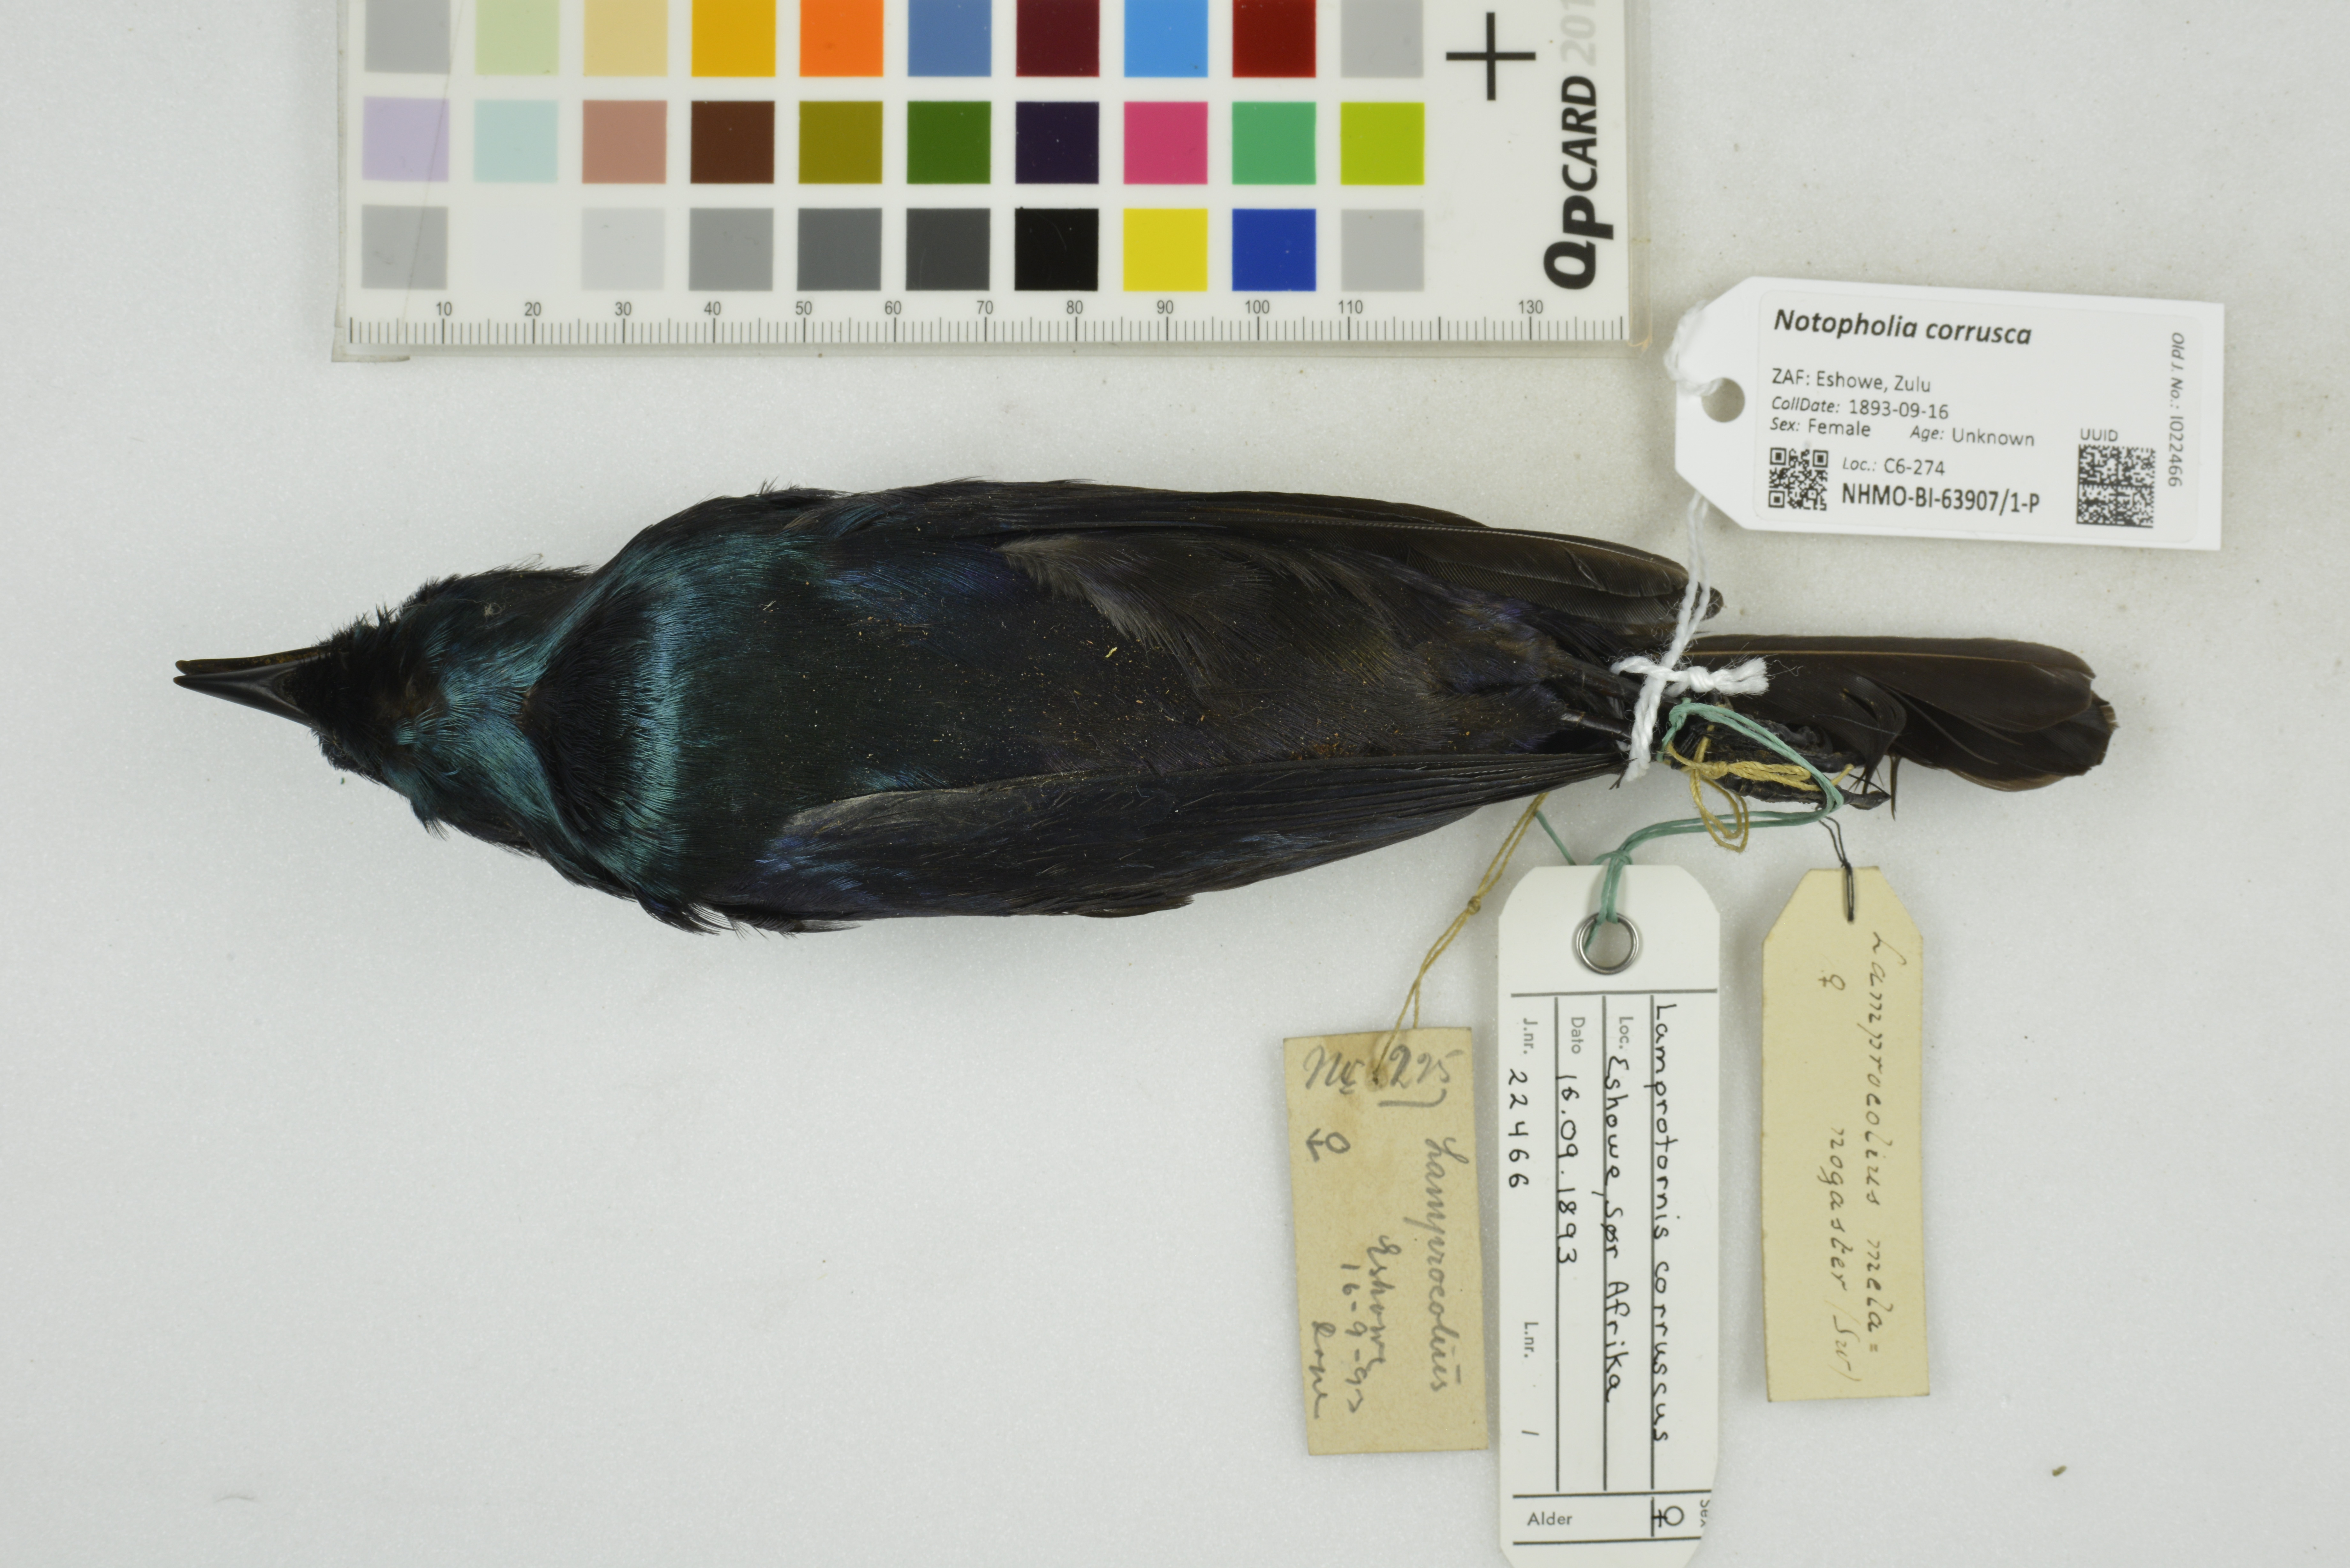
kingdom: Animalia
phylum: Chordata
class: Aves
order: Passeriformes
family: Sturnidae
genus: Notopholia
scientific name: Notopholia corrusca
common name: Black-bellied starling
